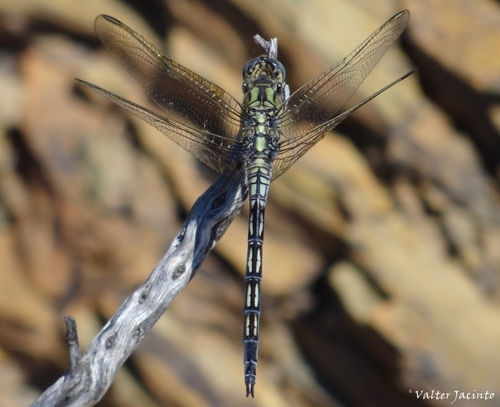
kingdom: Animalia
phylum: Arthropoda
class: Insecta
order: Odonata
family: Libellulidae
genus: Orthetrum
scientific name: Orthetrum trinacria
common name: Long skimmer
